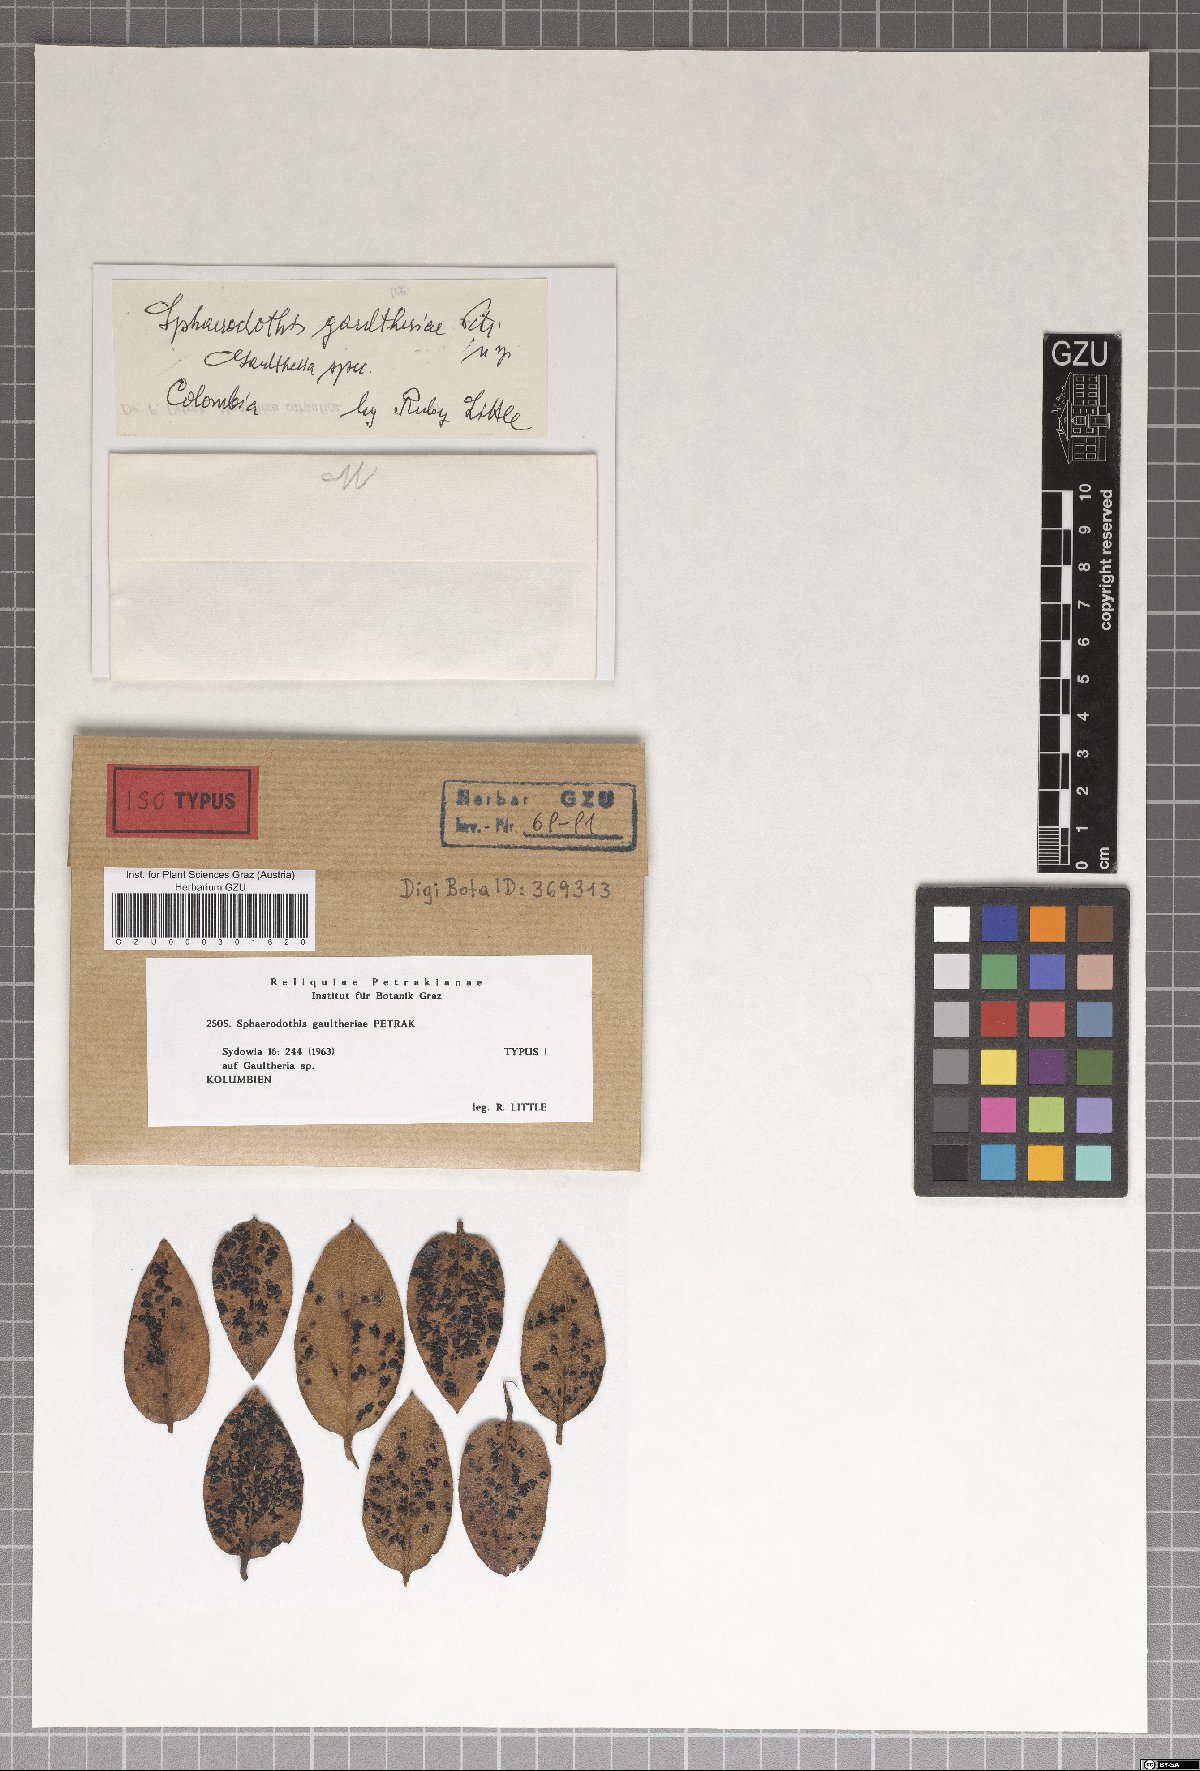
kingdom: Fungi
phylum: Ascomycota
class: Sordariomycetes
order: Phyllachorales
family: Phyllachoraceae
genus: Sphaerodothis
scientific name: Sphaerodothis gaultheriae
